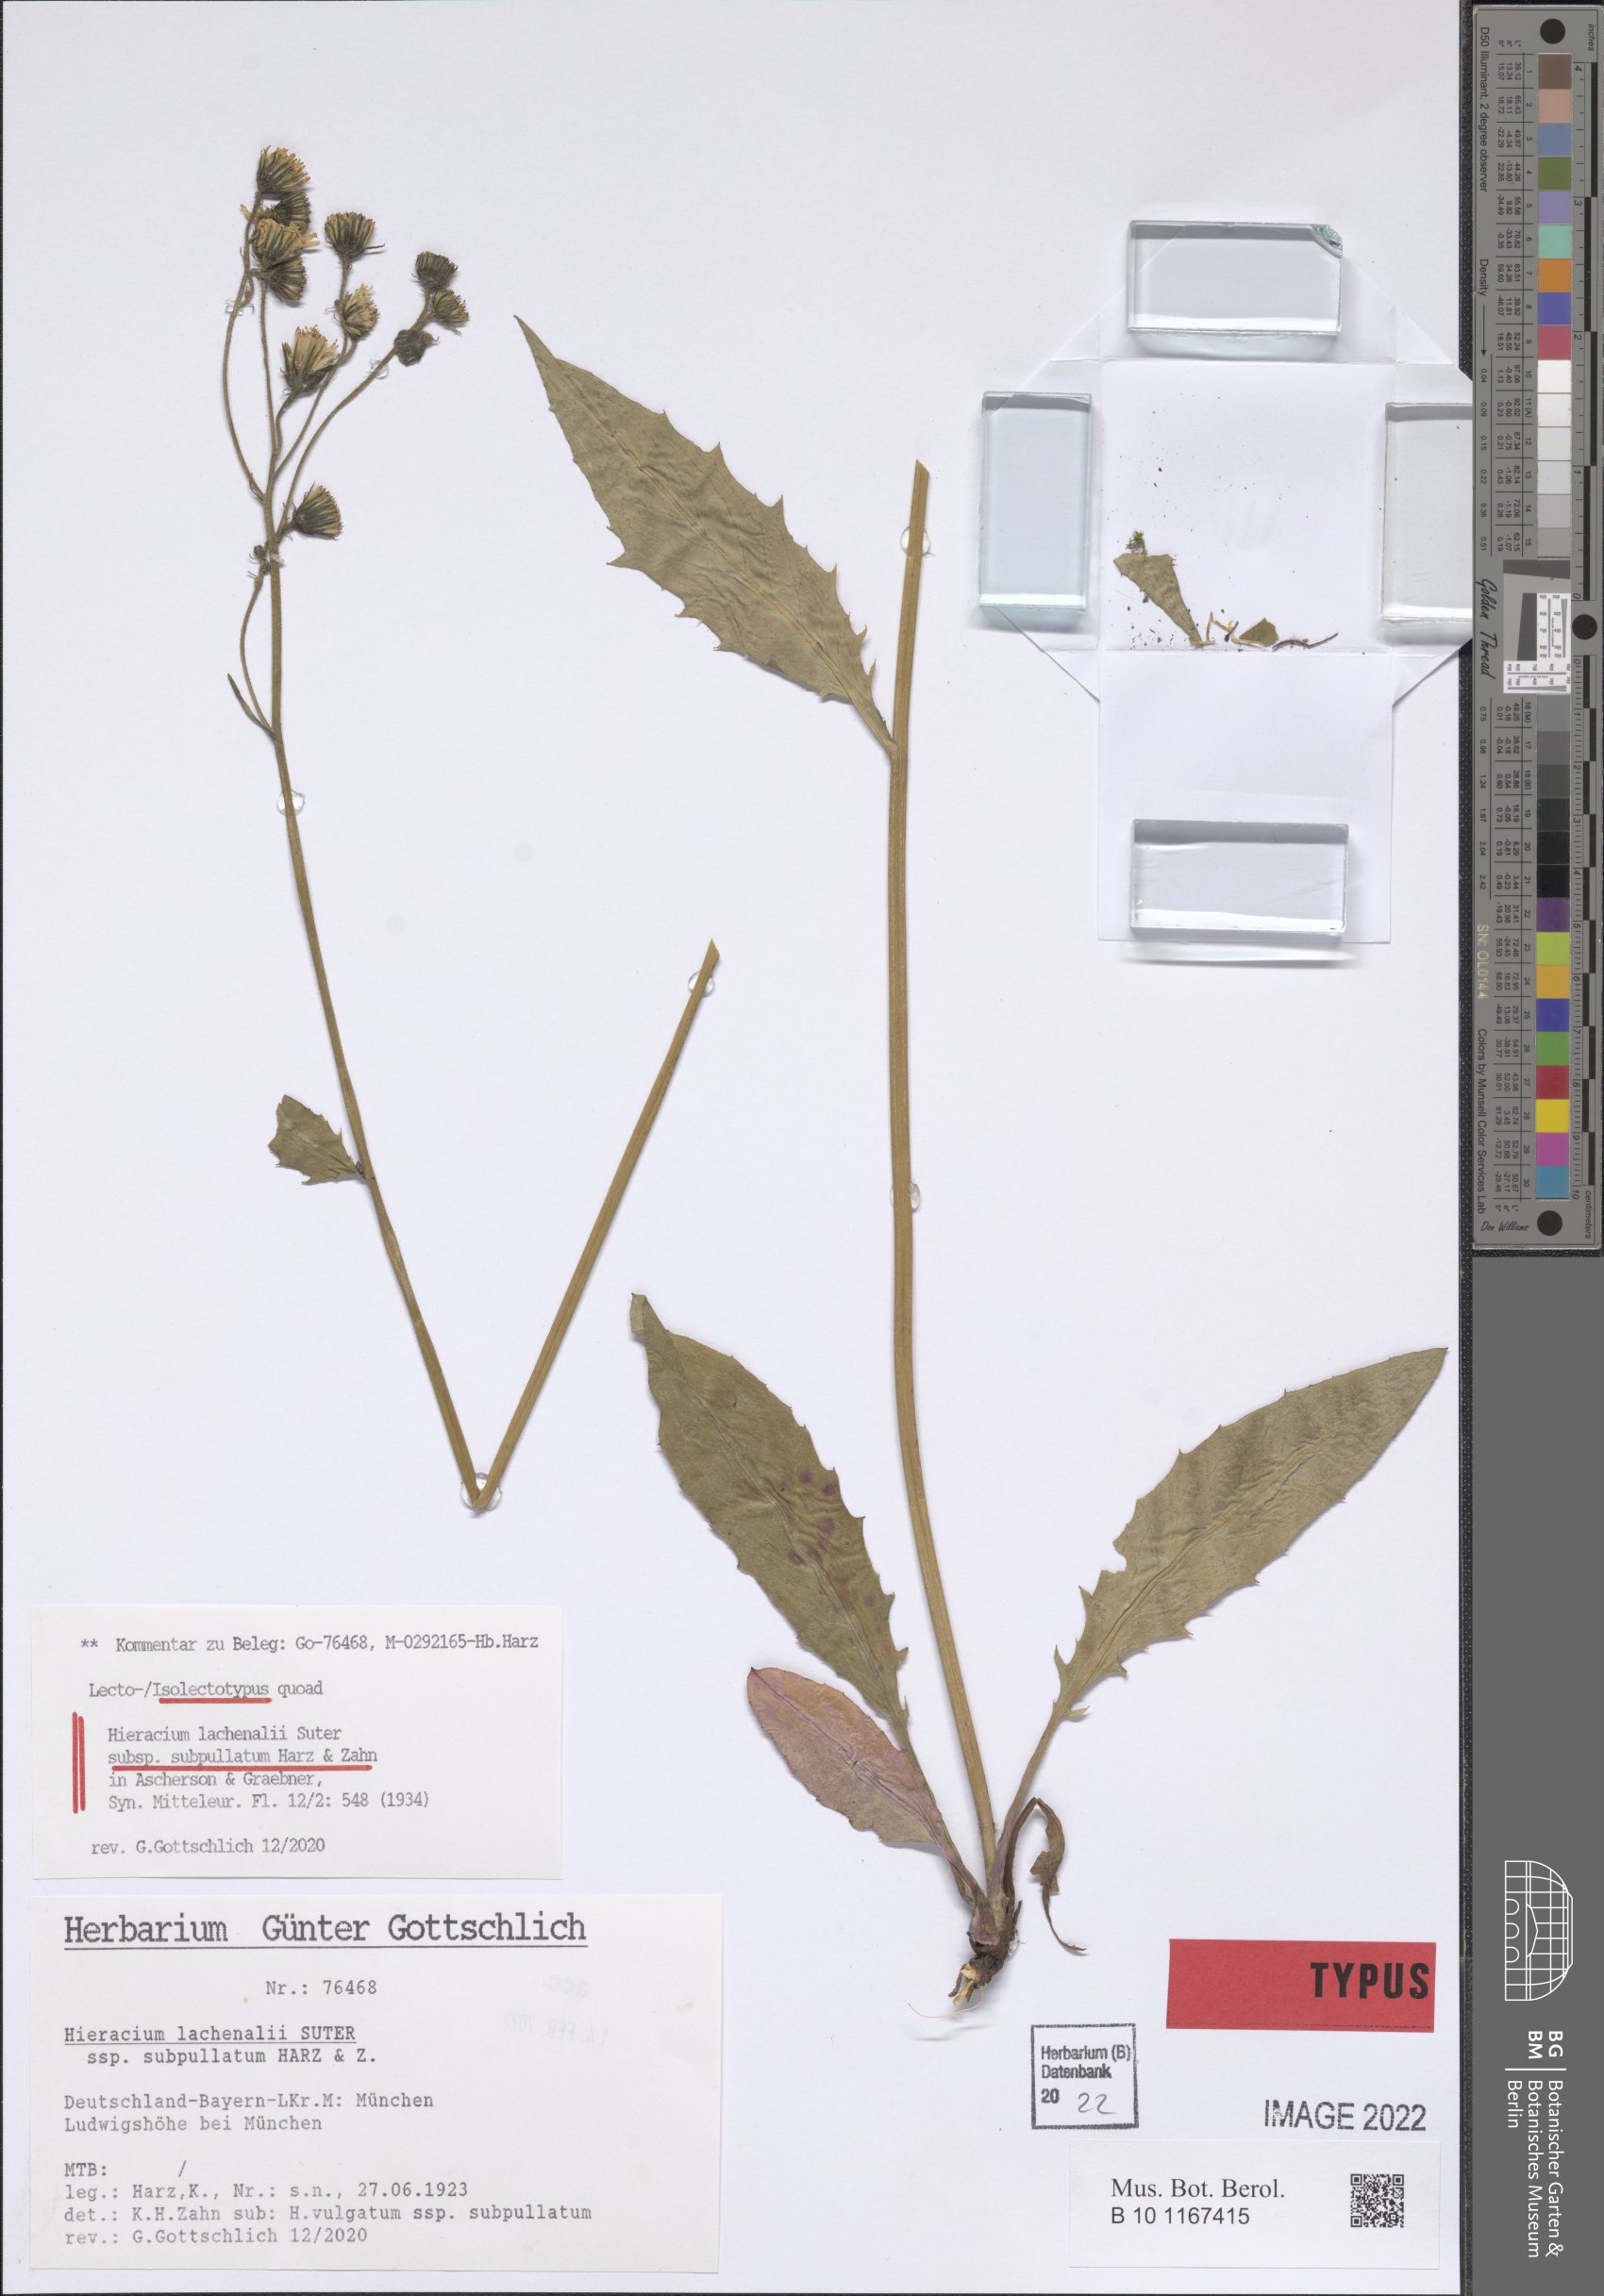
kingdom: Plantae
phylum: Tracheophyta
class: Magnoliopsida
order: Asterales
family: Asteraceae
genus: Hieracium
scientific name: Hieracium lachenalii
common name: Common hawkweed
